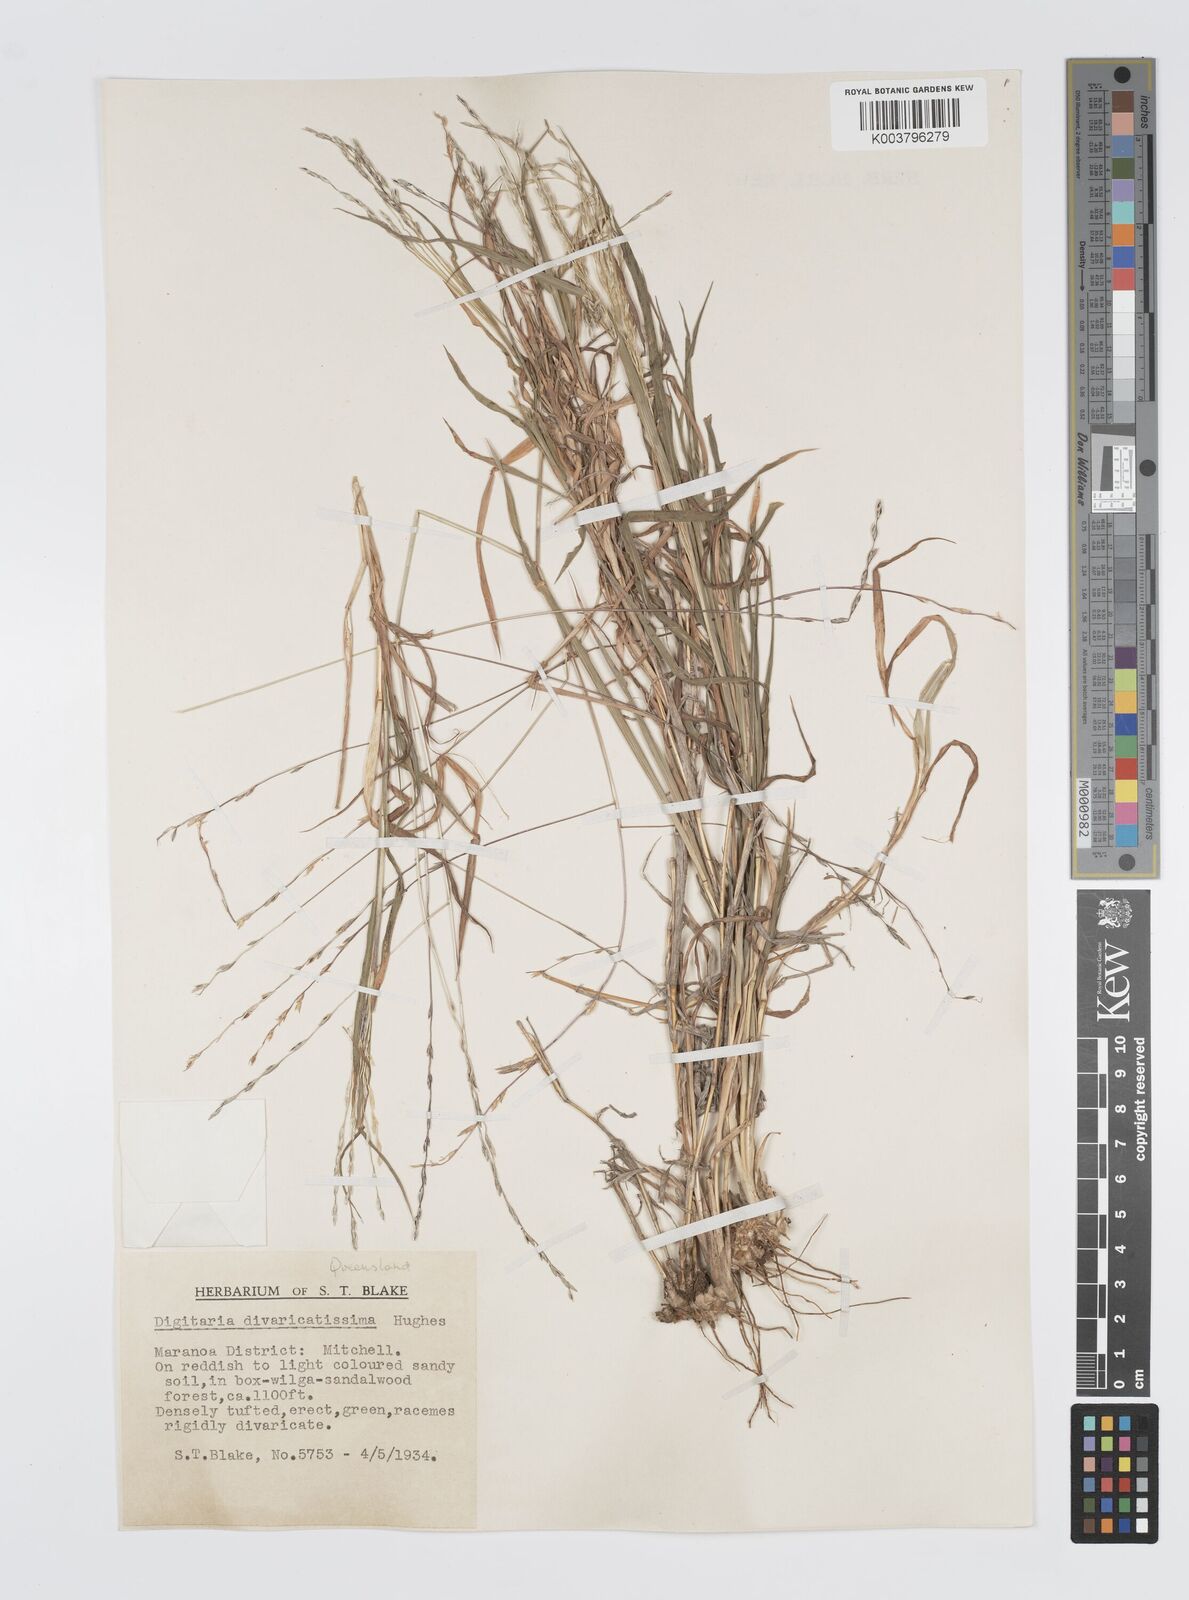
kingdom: Plantae
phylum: Tracheophyta
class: Liliopsida
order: Poales
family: Poaceae
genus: Digitaria
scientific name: Digitaria divaricatissima
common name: Crabgrass
